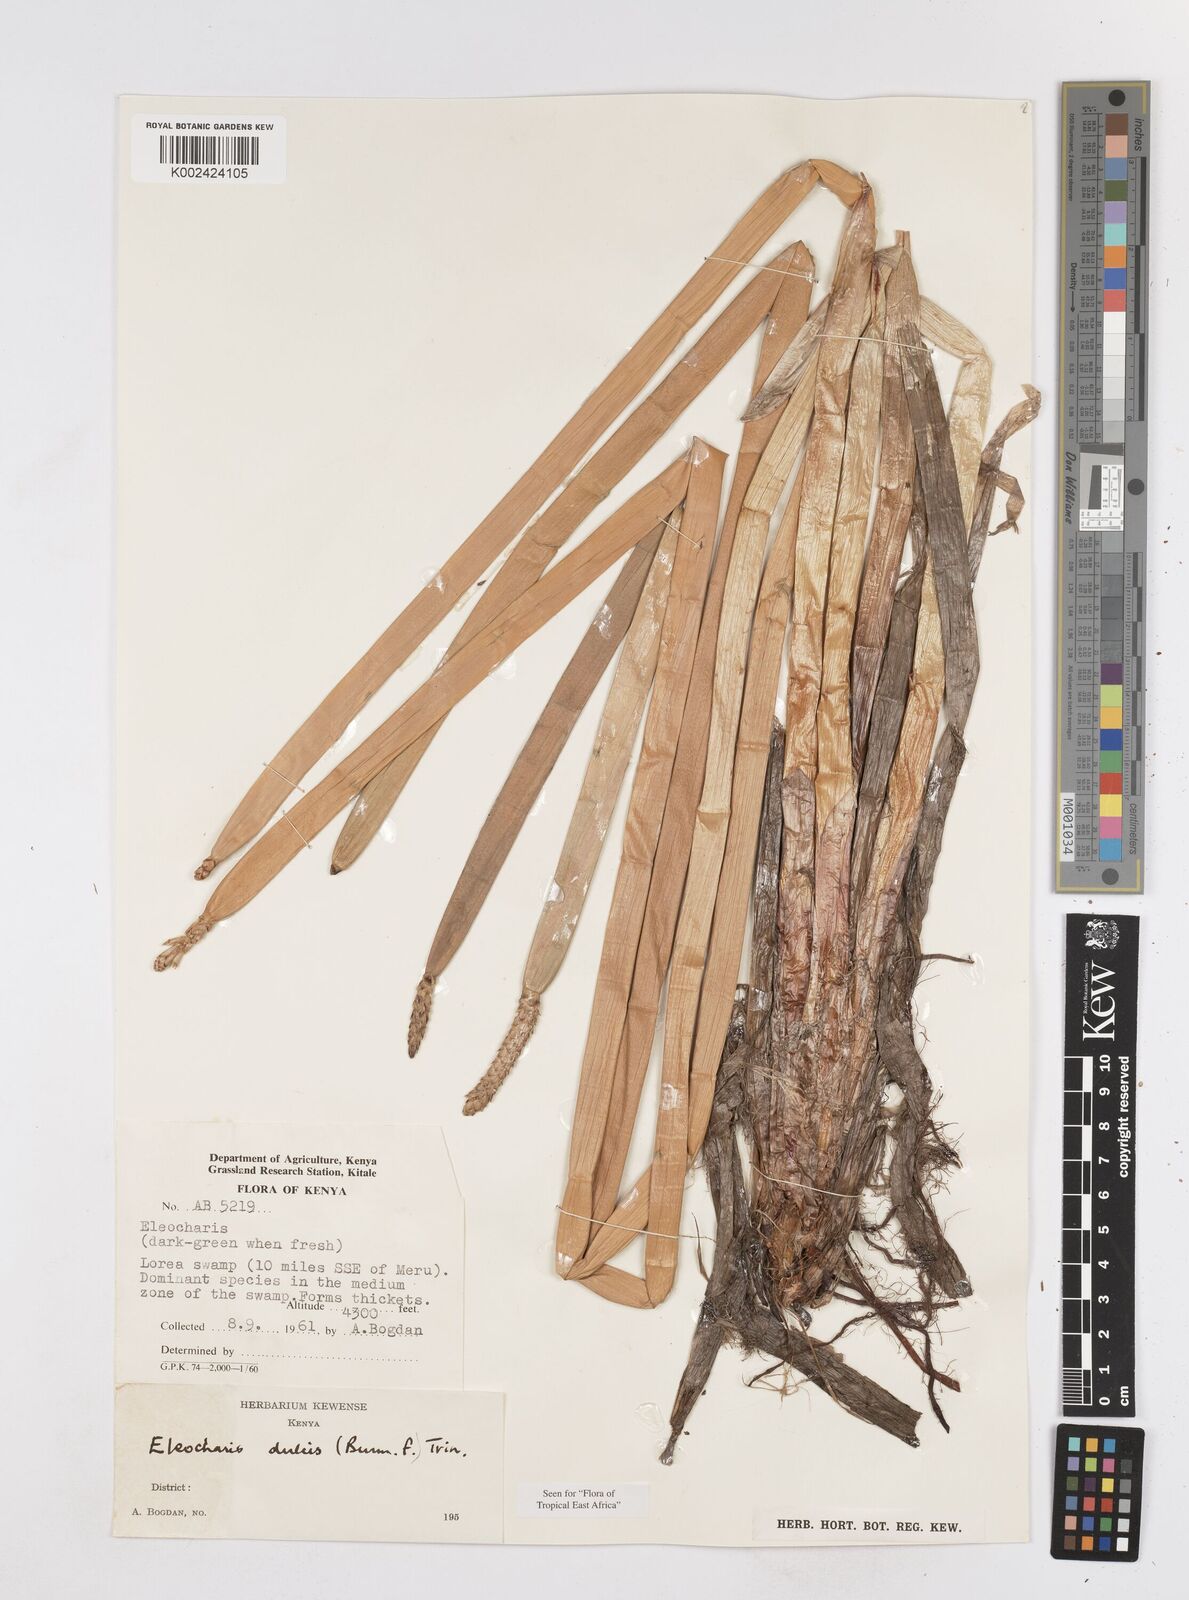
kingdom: Plantae
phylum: Tracheophyta
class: Liliopsida
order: Poales
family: Cyperaceae
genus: Eleocharis
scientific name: Eleocharis dulcis
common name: Chinese water chestnut
